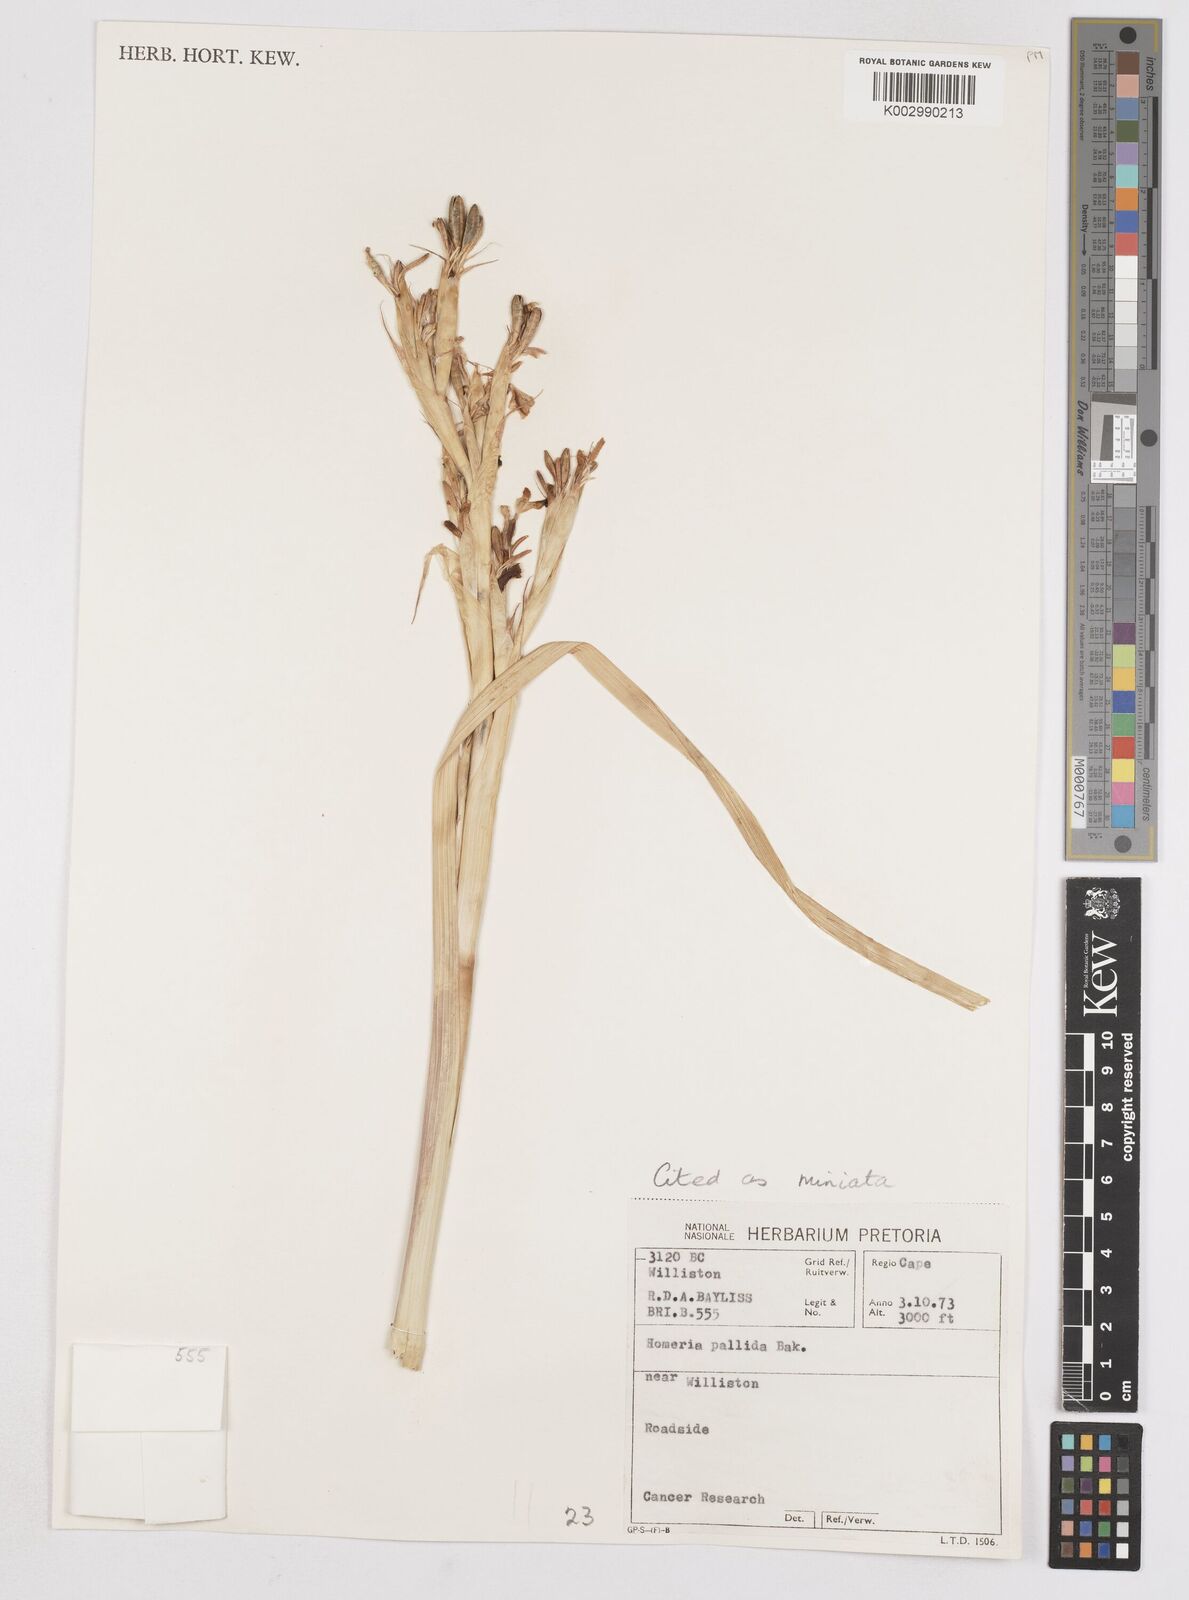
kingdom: Plantae
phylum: Tracheophyta
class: Liliopsida
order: Asparagales
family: Iridaceae
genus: Moraea
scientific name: Moraea miniata
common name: Two-leaf cape-tulip
